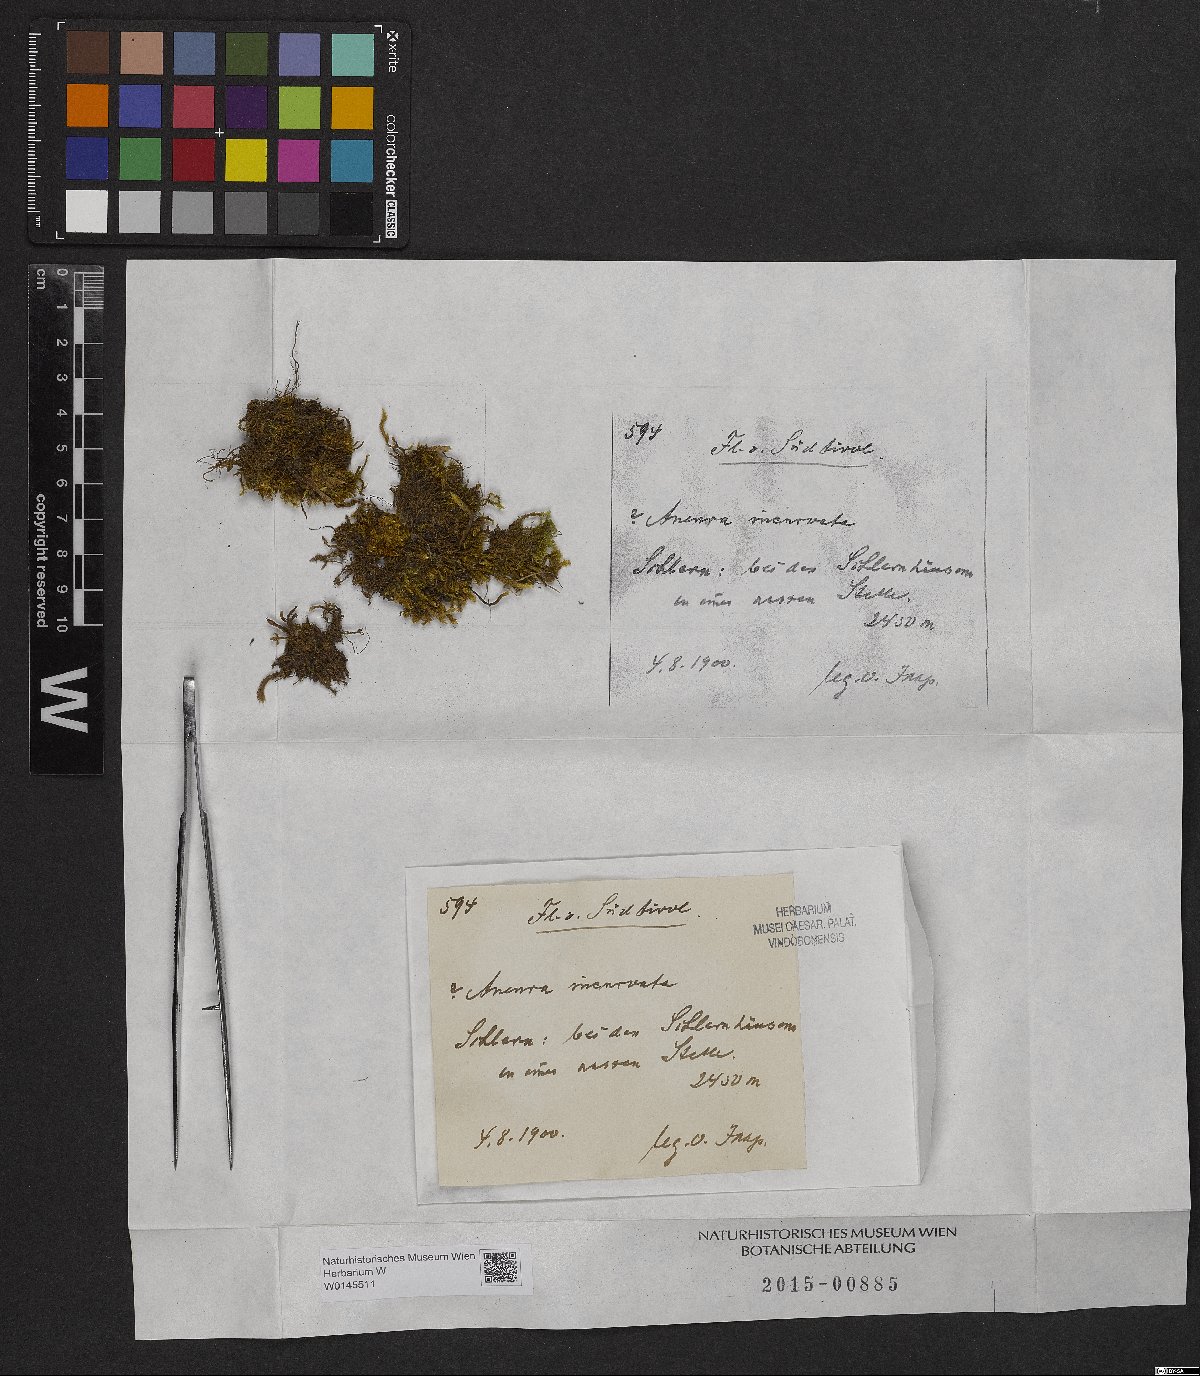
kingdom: Plantae
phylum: Marchantiophyta
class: Jungermanniopsida
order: Metzgeriales
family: Aneuraceae
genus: Riccardia
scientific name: Riccardia incurvata
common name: Lesser germanderwort
